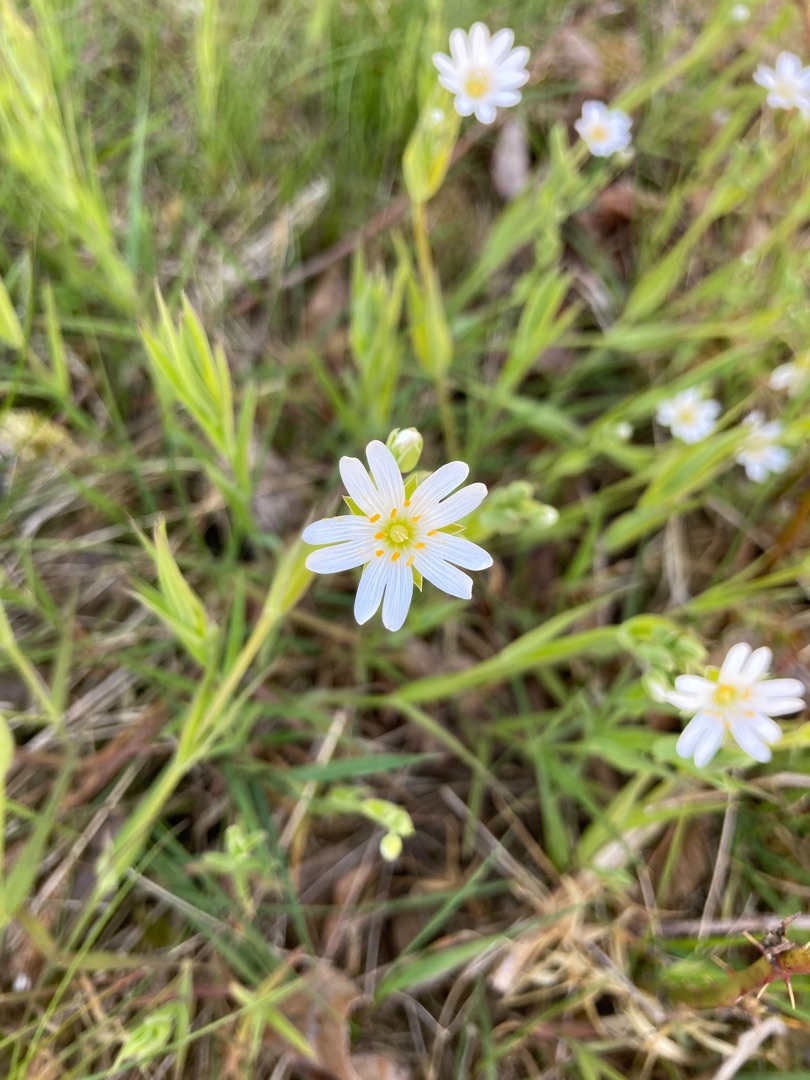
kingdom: Plantae
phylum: Tracheophyta
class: Magnoliopsida
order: Caryophyllales
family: Caryophyllaceae
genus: Rabelera
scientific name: Rabelera holostea
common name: Stor fladstjerne
